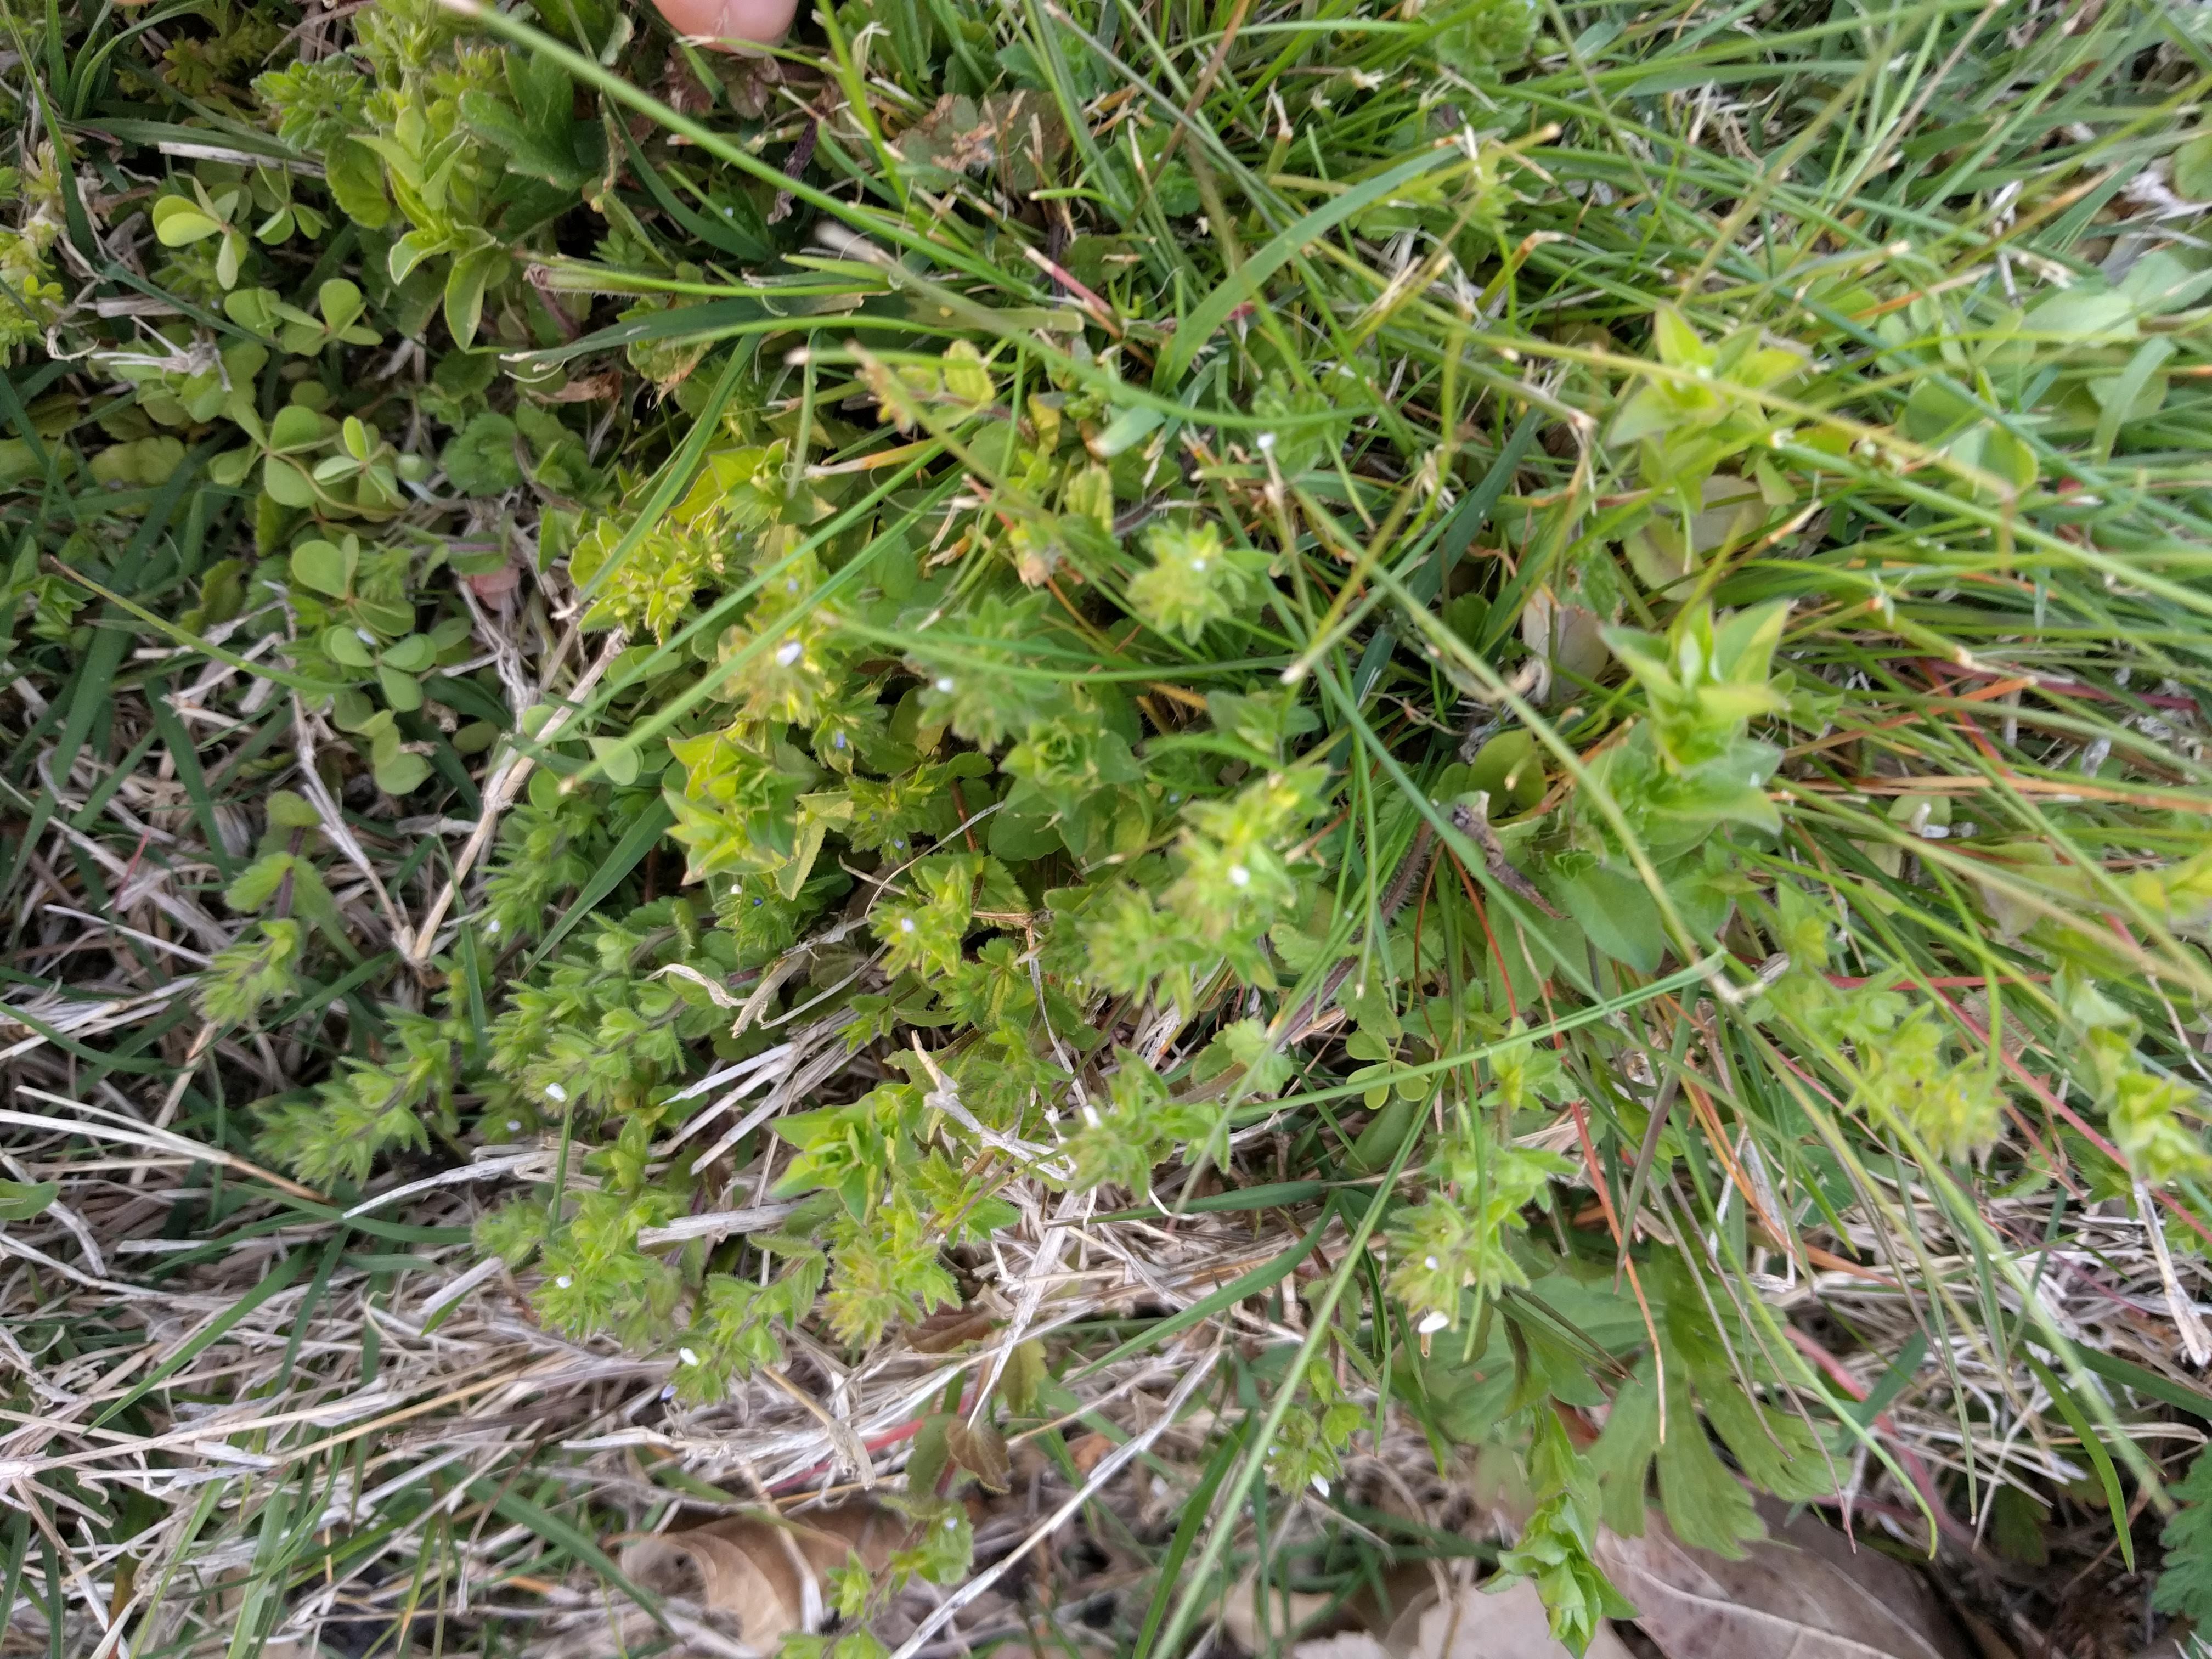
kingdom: Plantae
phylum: Tracheophyta
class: Magnoliopsida
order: Lamiales
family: Plantaginaceae
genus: Veronica
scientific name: Veronica arvensis
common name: Corn speedwell
